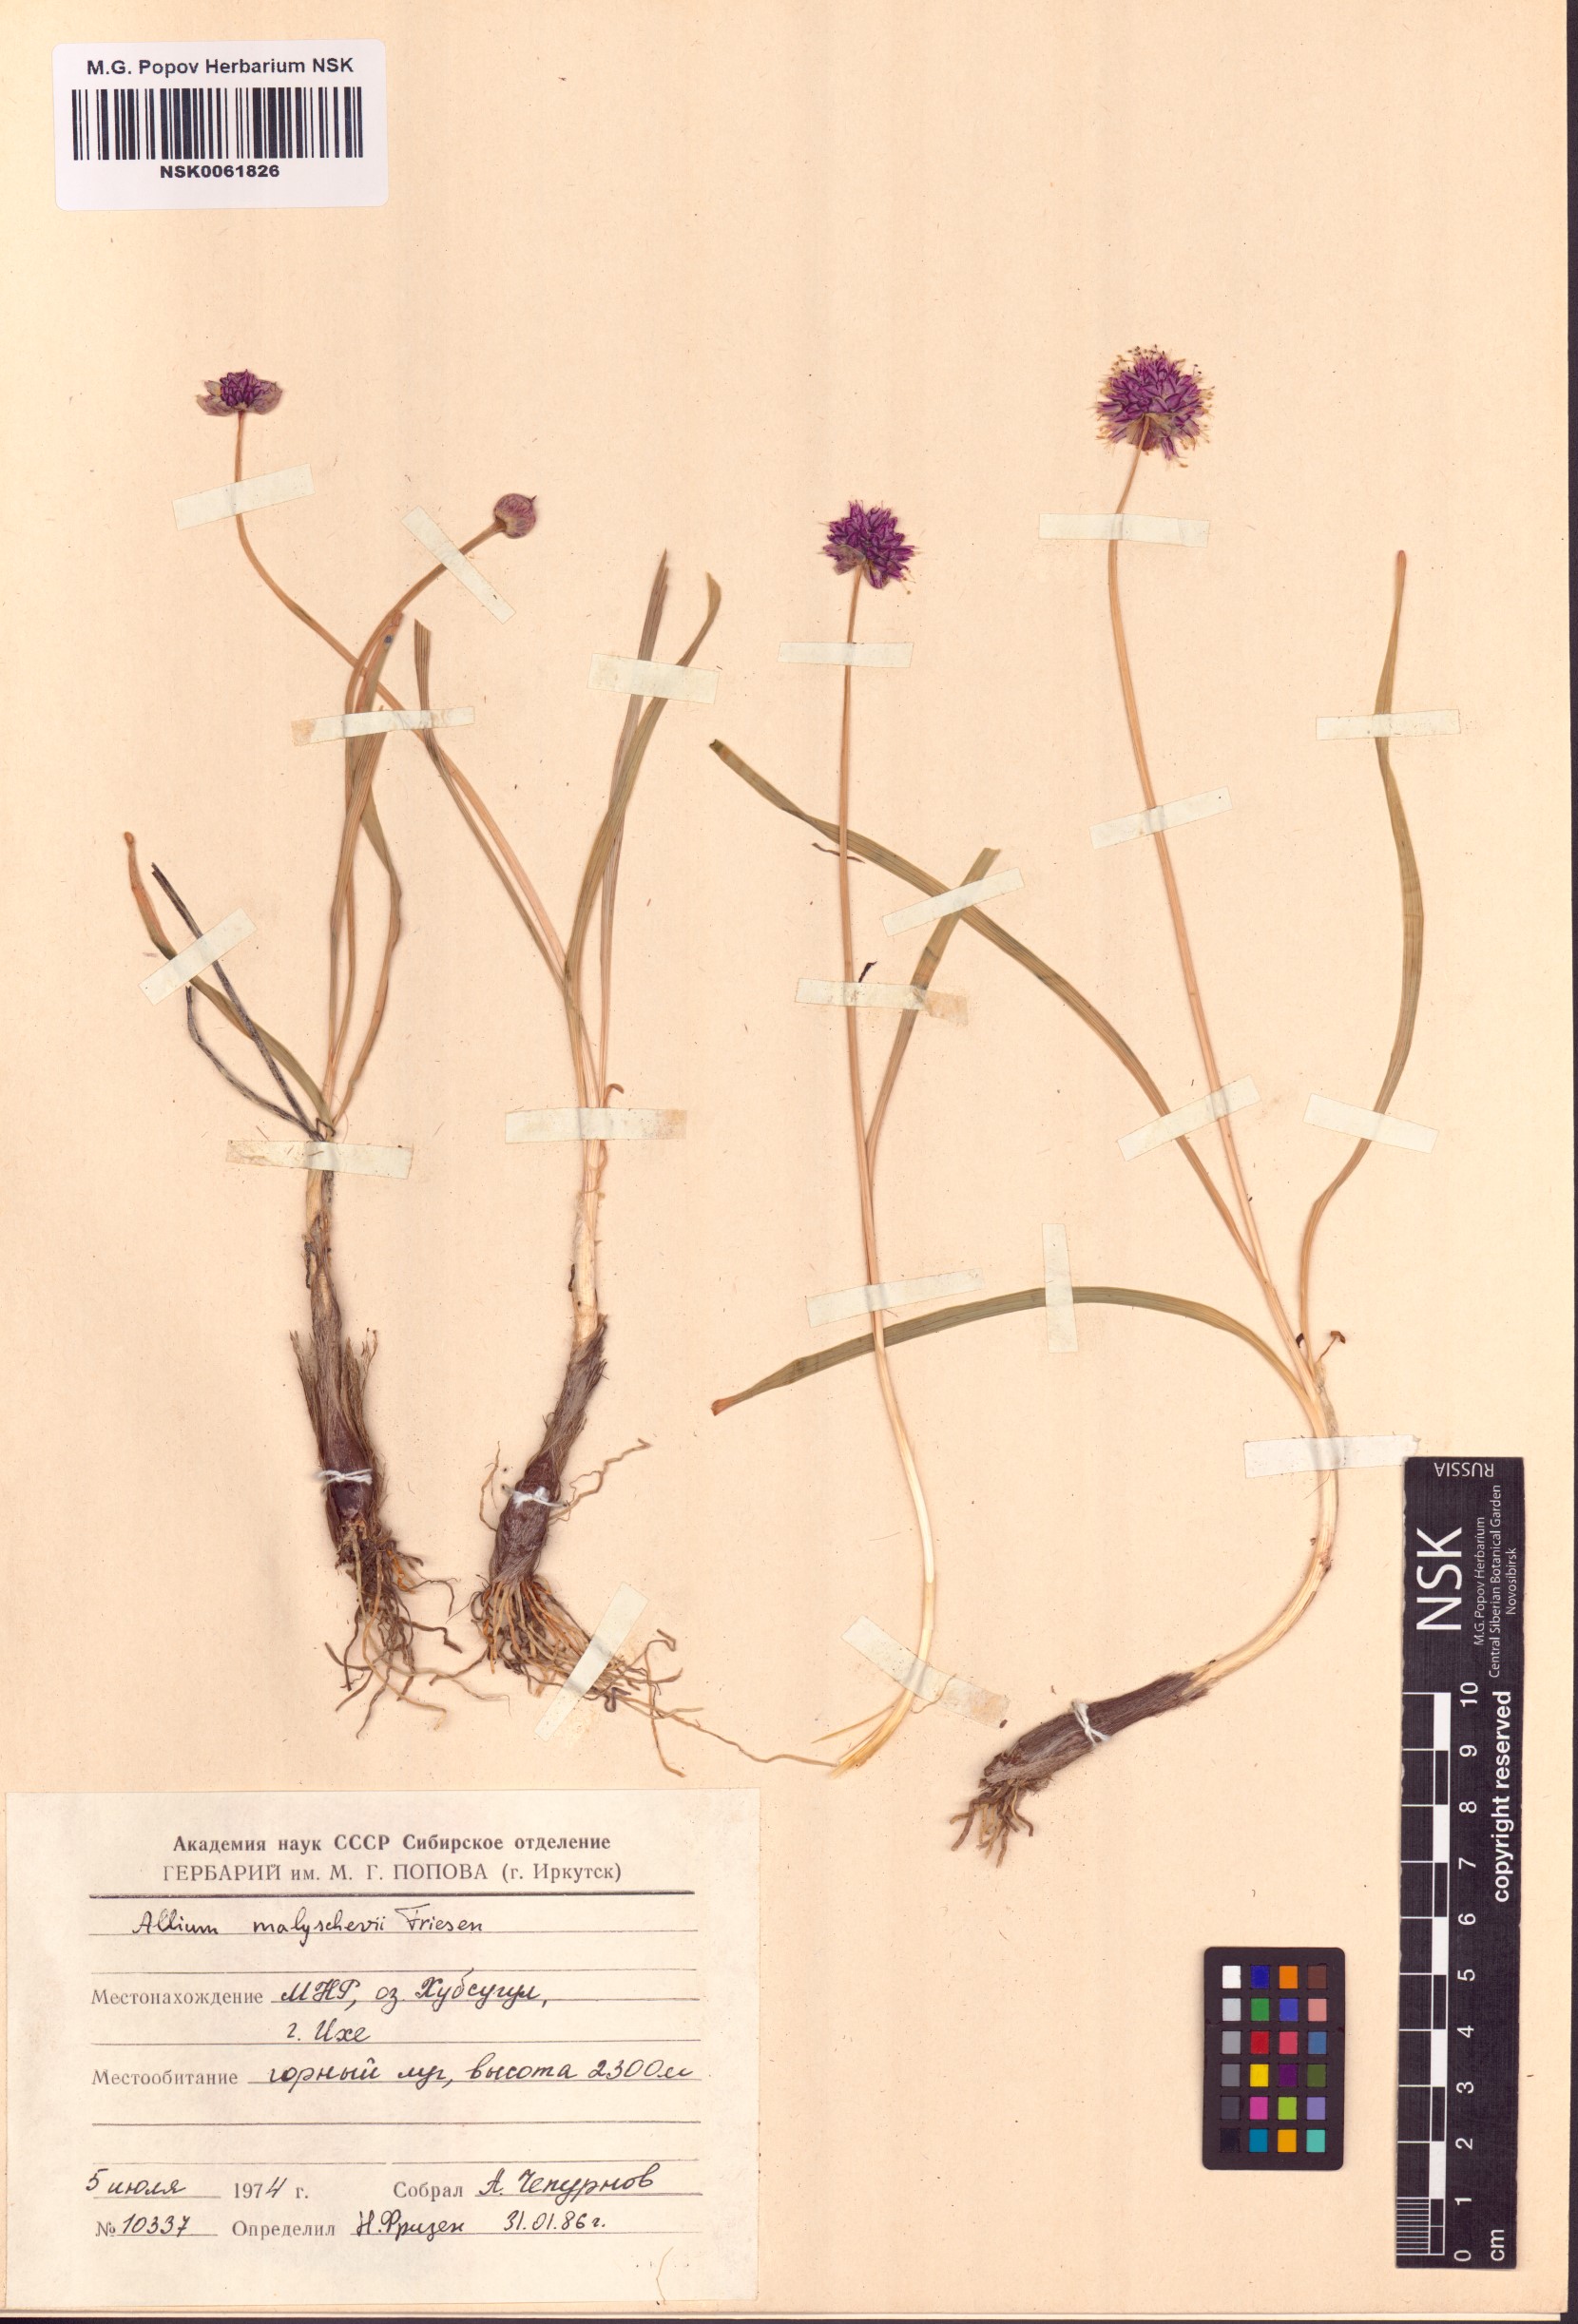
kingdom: Plantae
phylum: Tracheophyta
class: Liliopsida
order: Asparagales
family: Amaryllidaceae
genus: Allium
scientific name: Allium malyschevii
